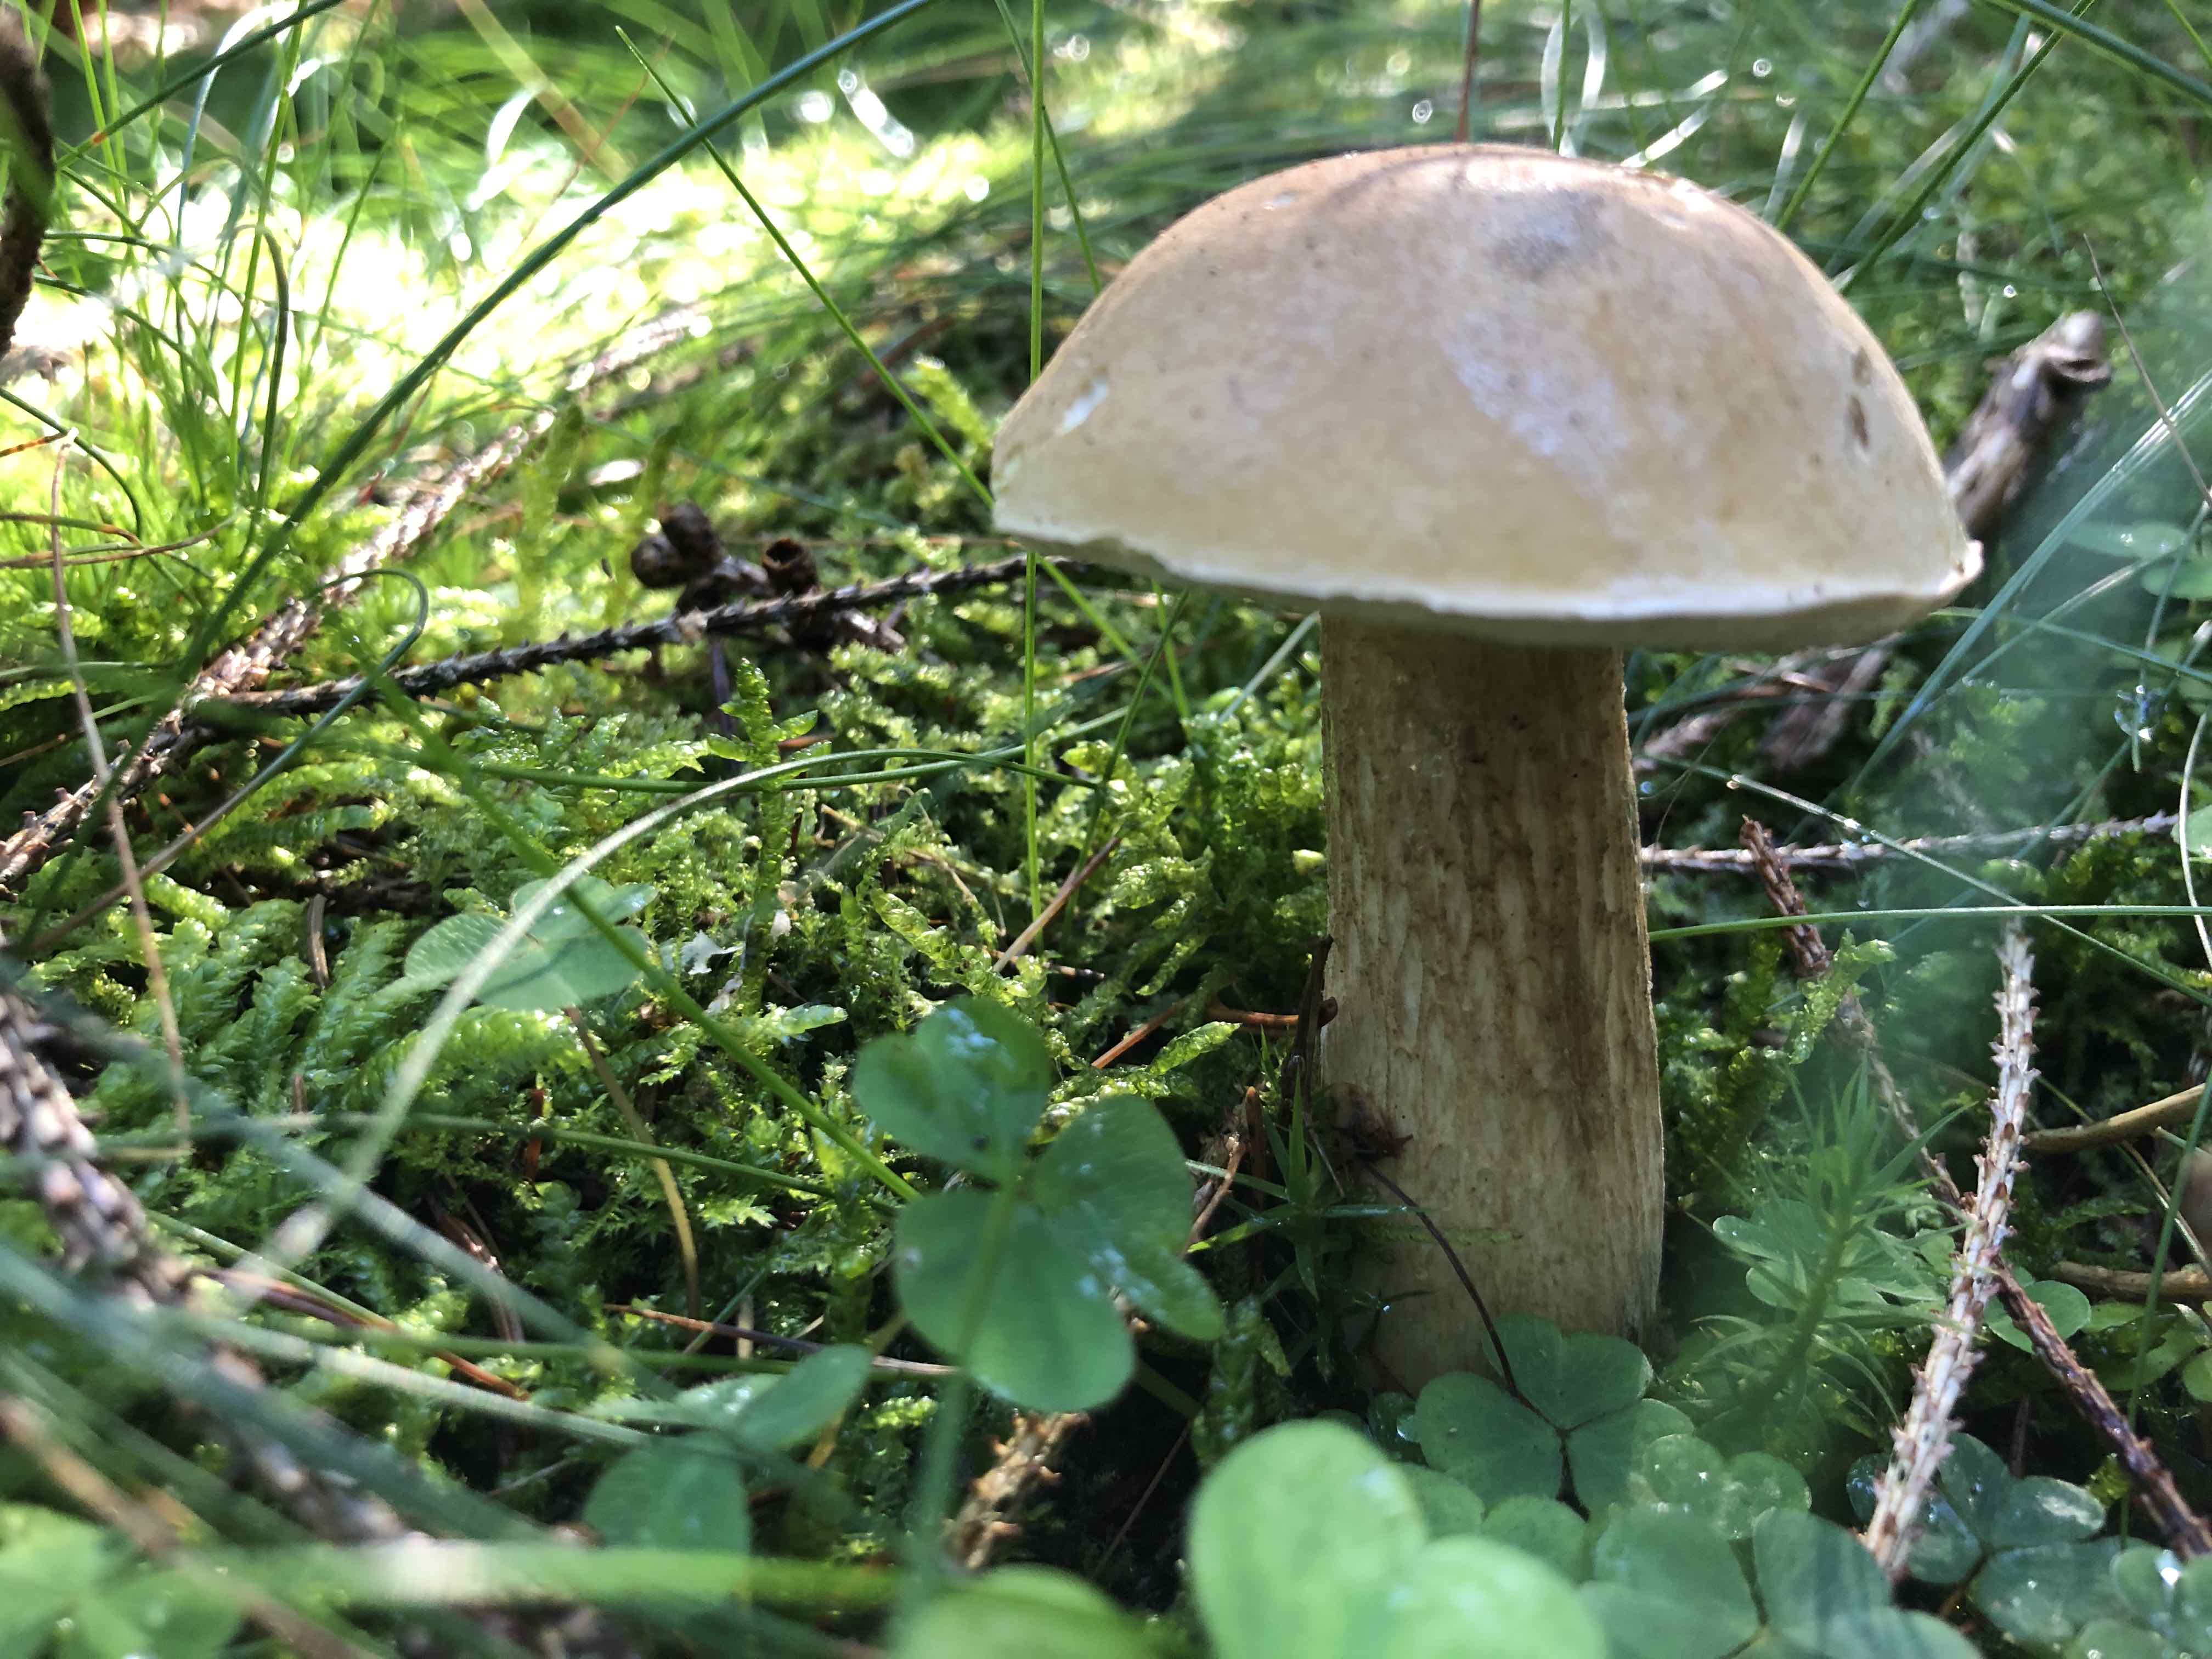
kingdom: Fungi
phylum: Basidiomycota
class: Agaricomycetes
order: Boletales
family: Boletaceae
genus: Tylopilus
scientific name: Tylopilus felleus
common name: galderørhat
